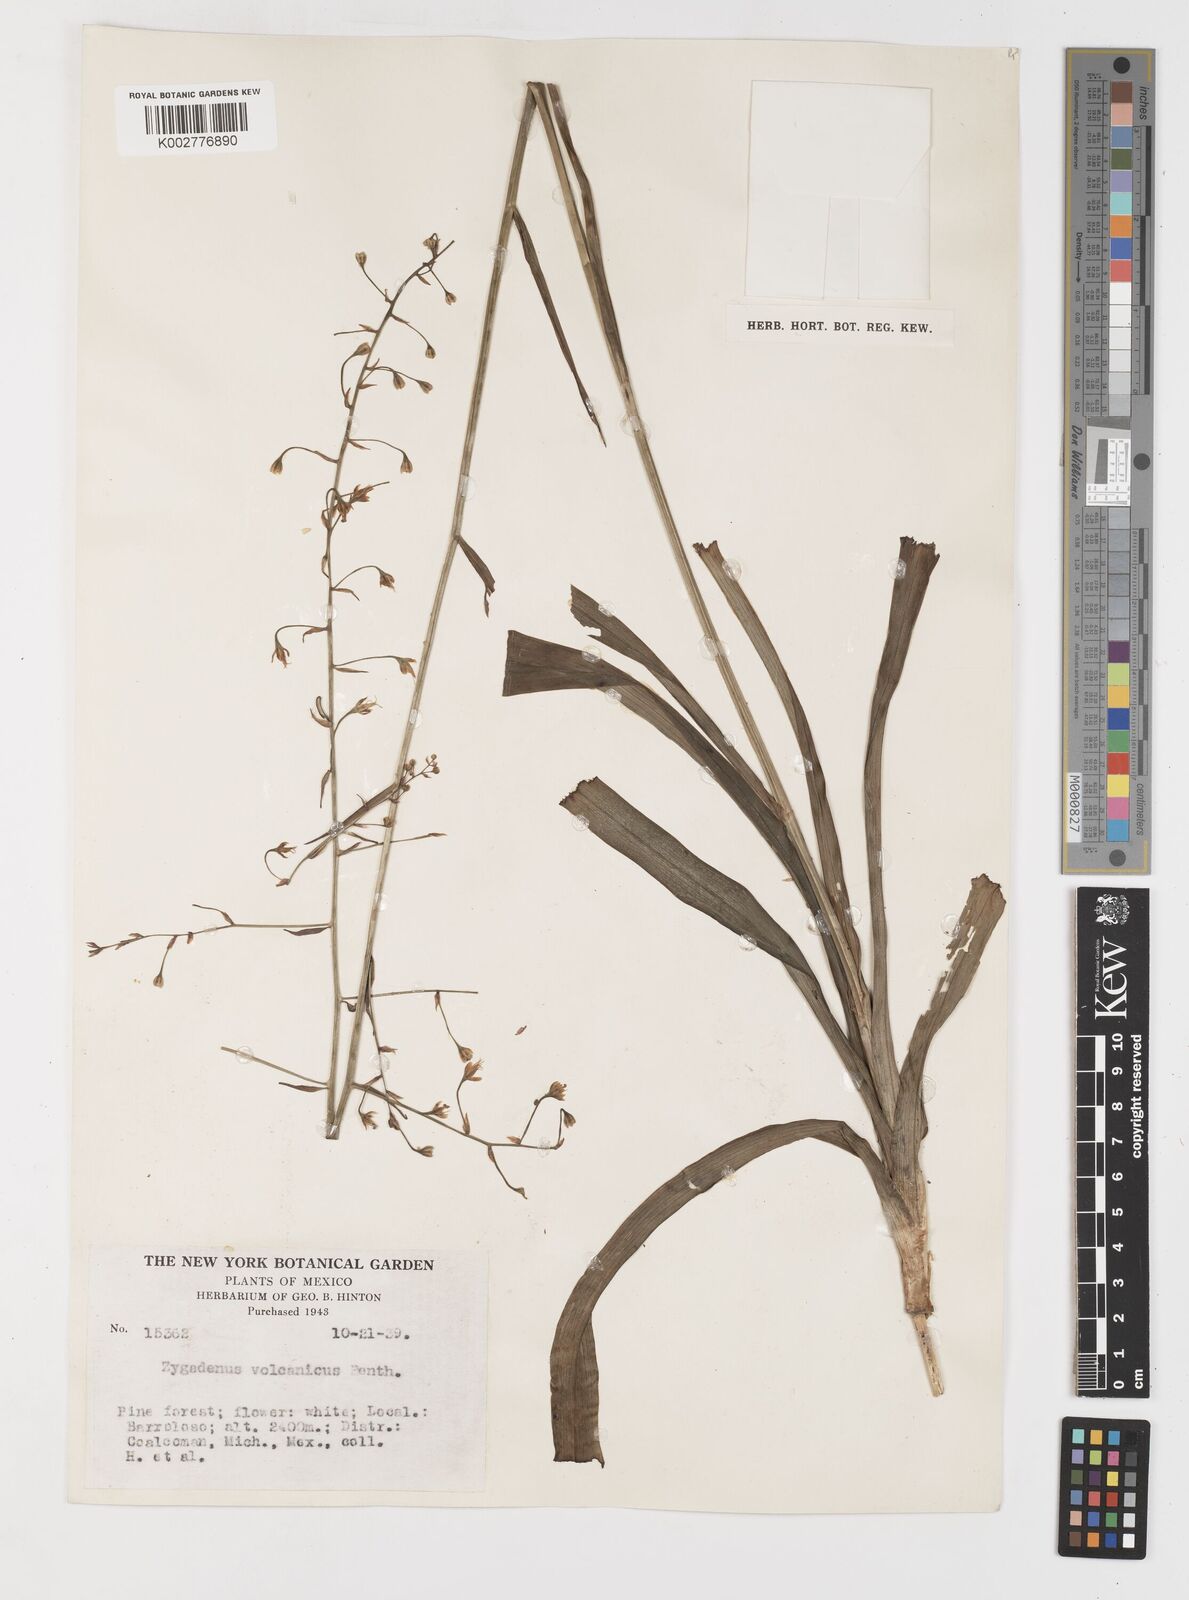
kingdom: Plantae
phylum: Tracheophyta
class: Liliopsida
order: Liliales
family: Melanthiaceae
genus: Anticlea
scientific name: Anticlea virescens
